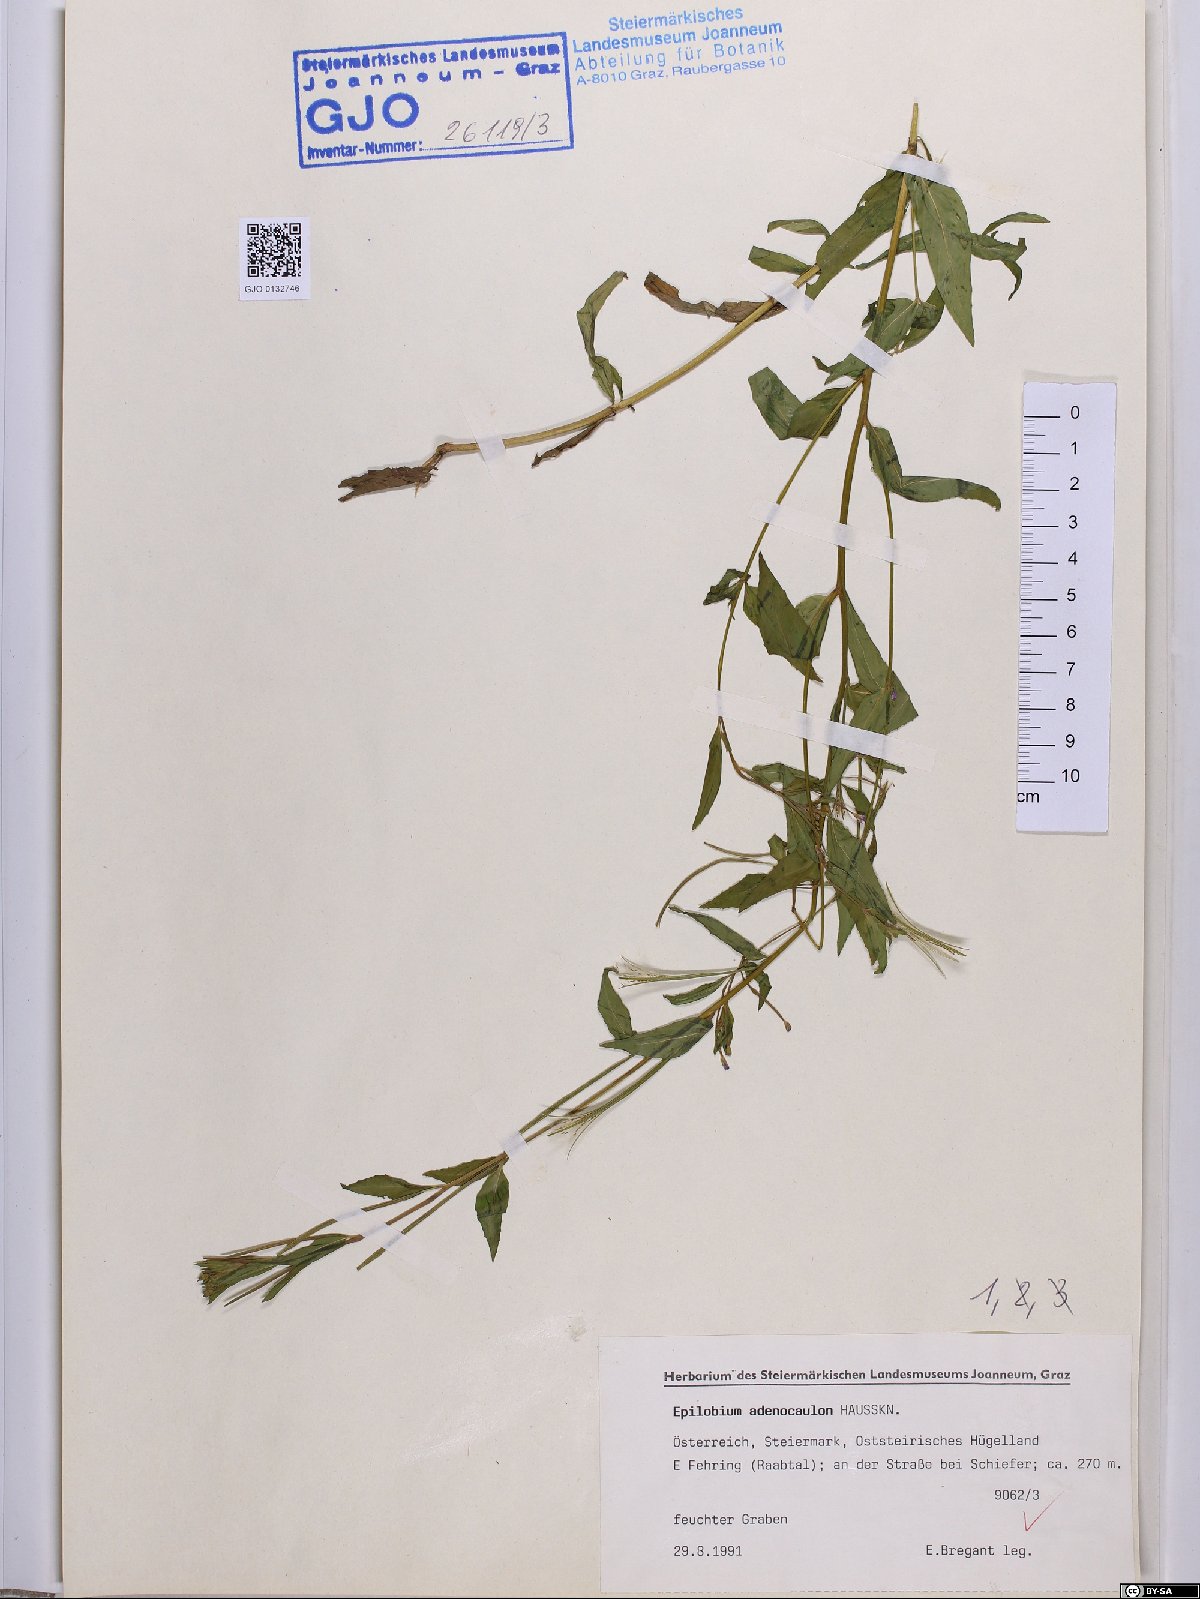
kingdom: Plantae
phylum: Tracheophyta
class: Magnoliopsida
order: Myrtales
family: Onagraceae
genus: Epilobium
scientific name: Epilobium ciliatum
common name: American willowherb
